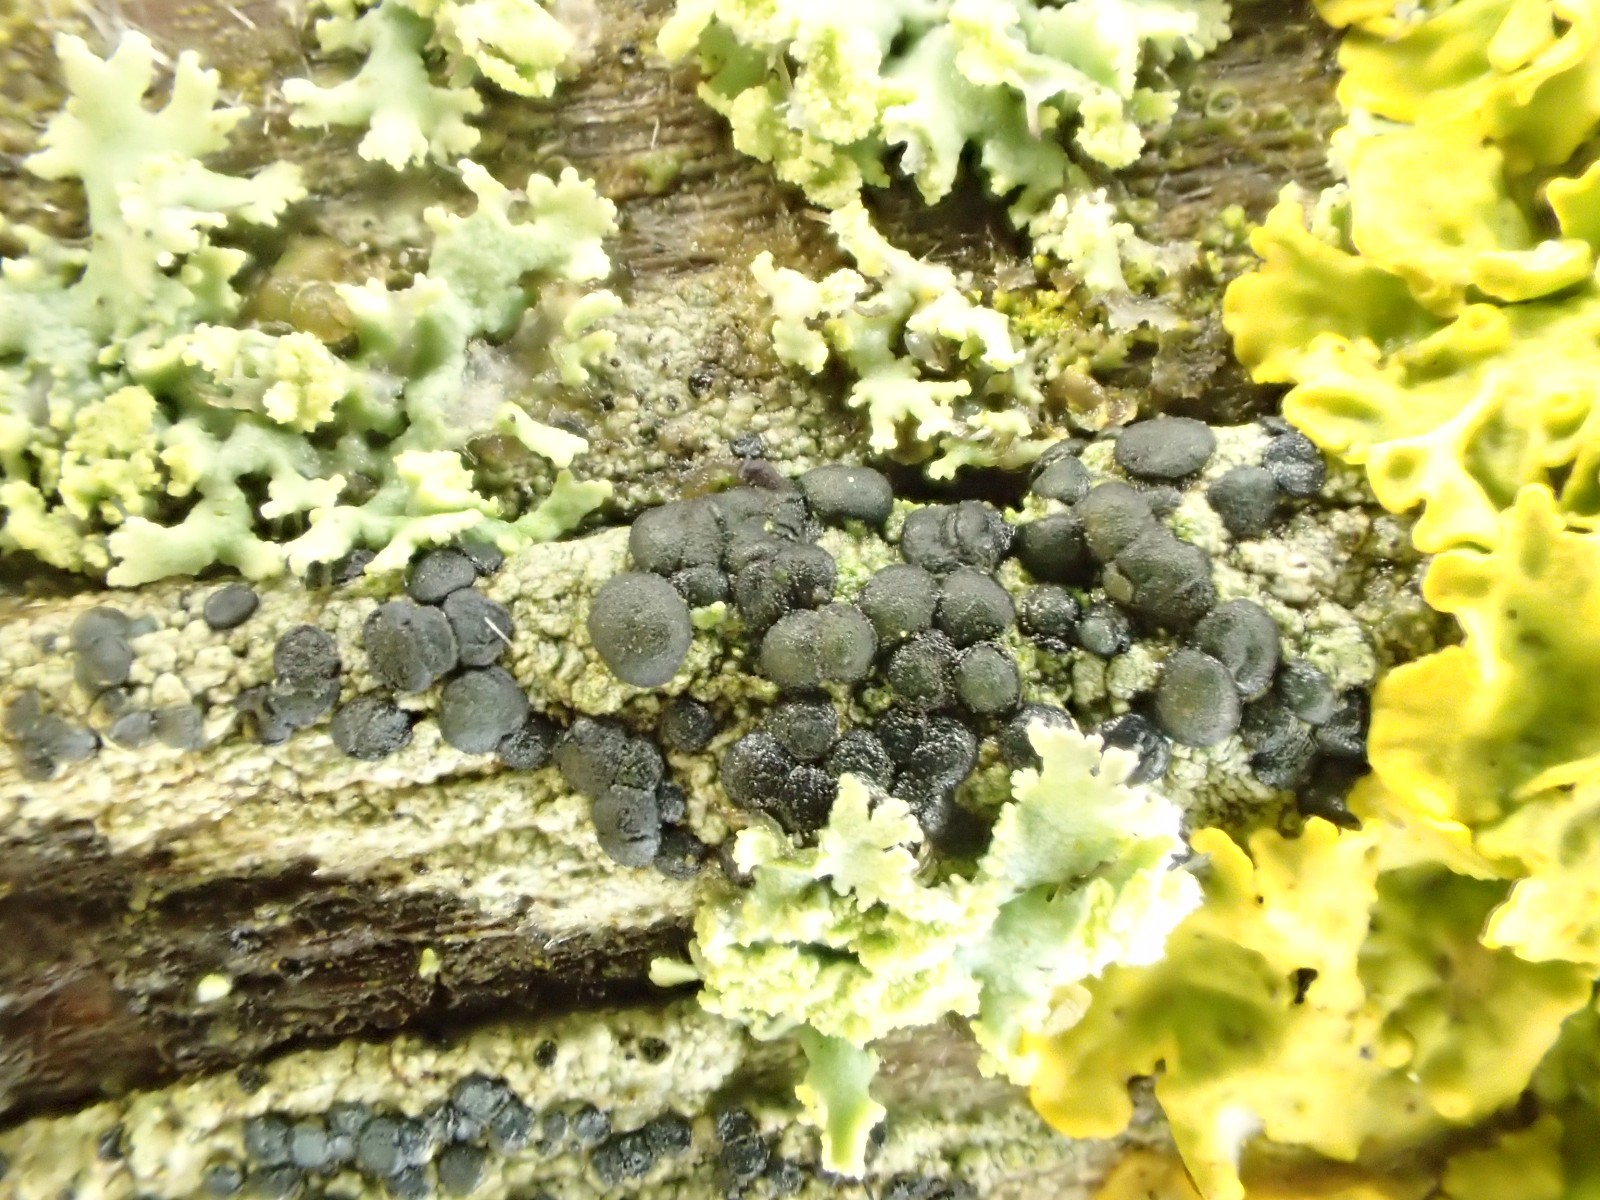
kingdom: Fungi
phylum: Ascomycota
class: Lecanoromycetes
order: Lecanorales
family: Lecanoraceae
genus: Lecidella
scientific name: Lecidella elaeochroma
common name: grågrøn skivelav
